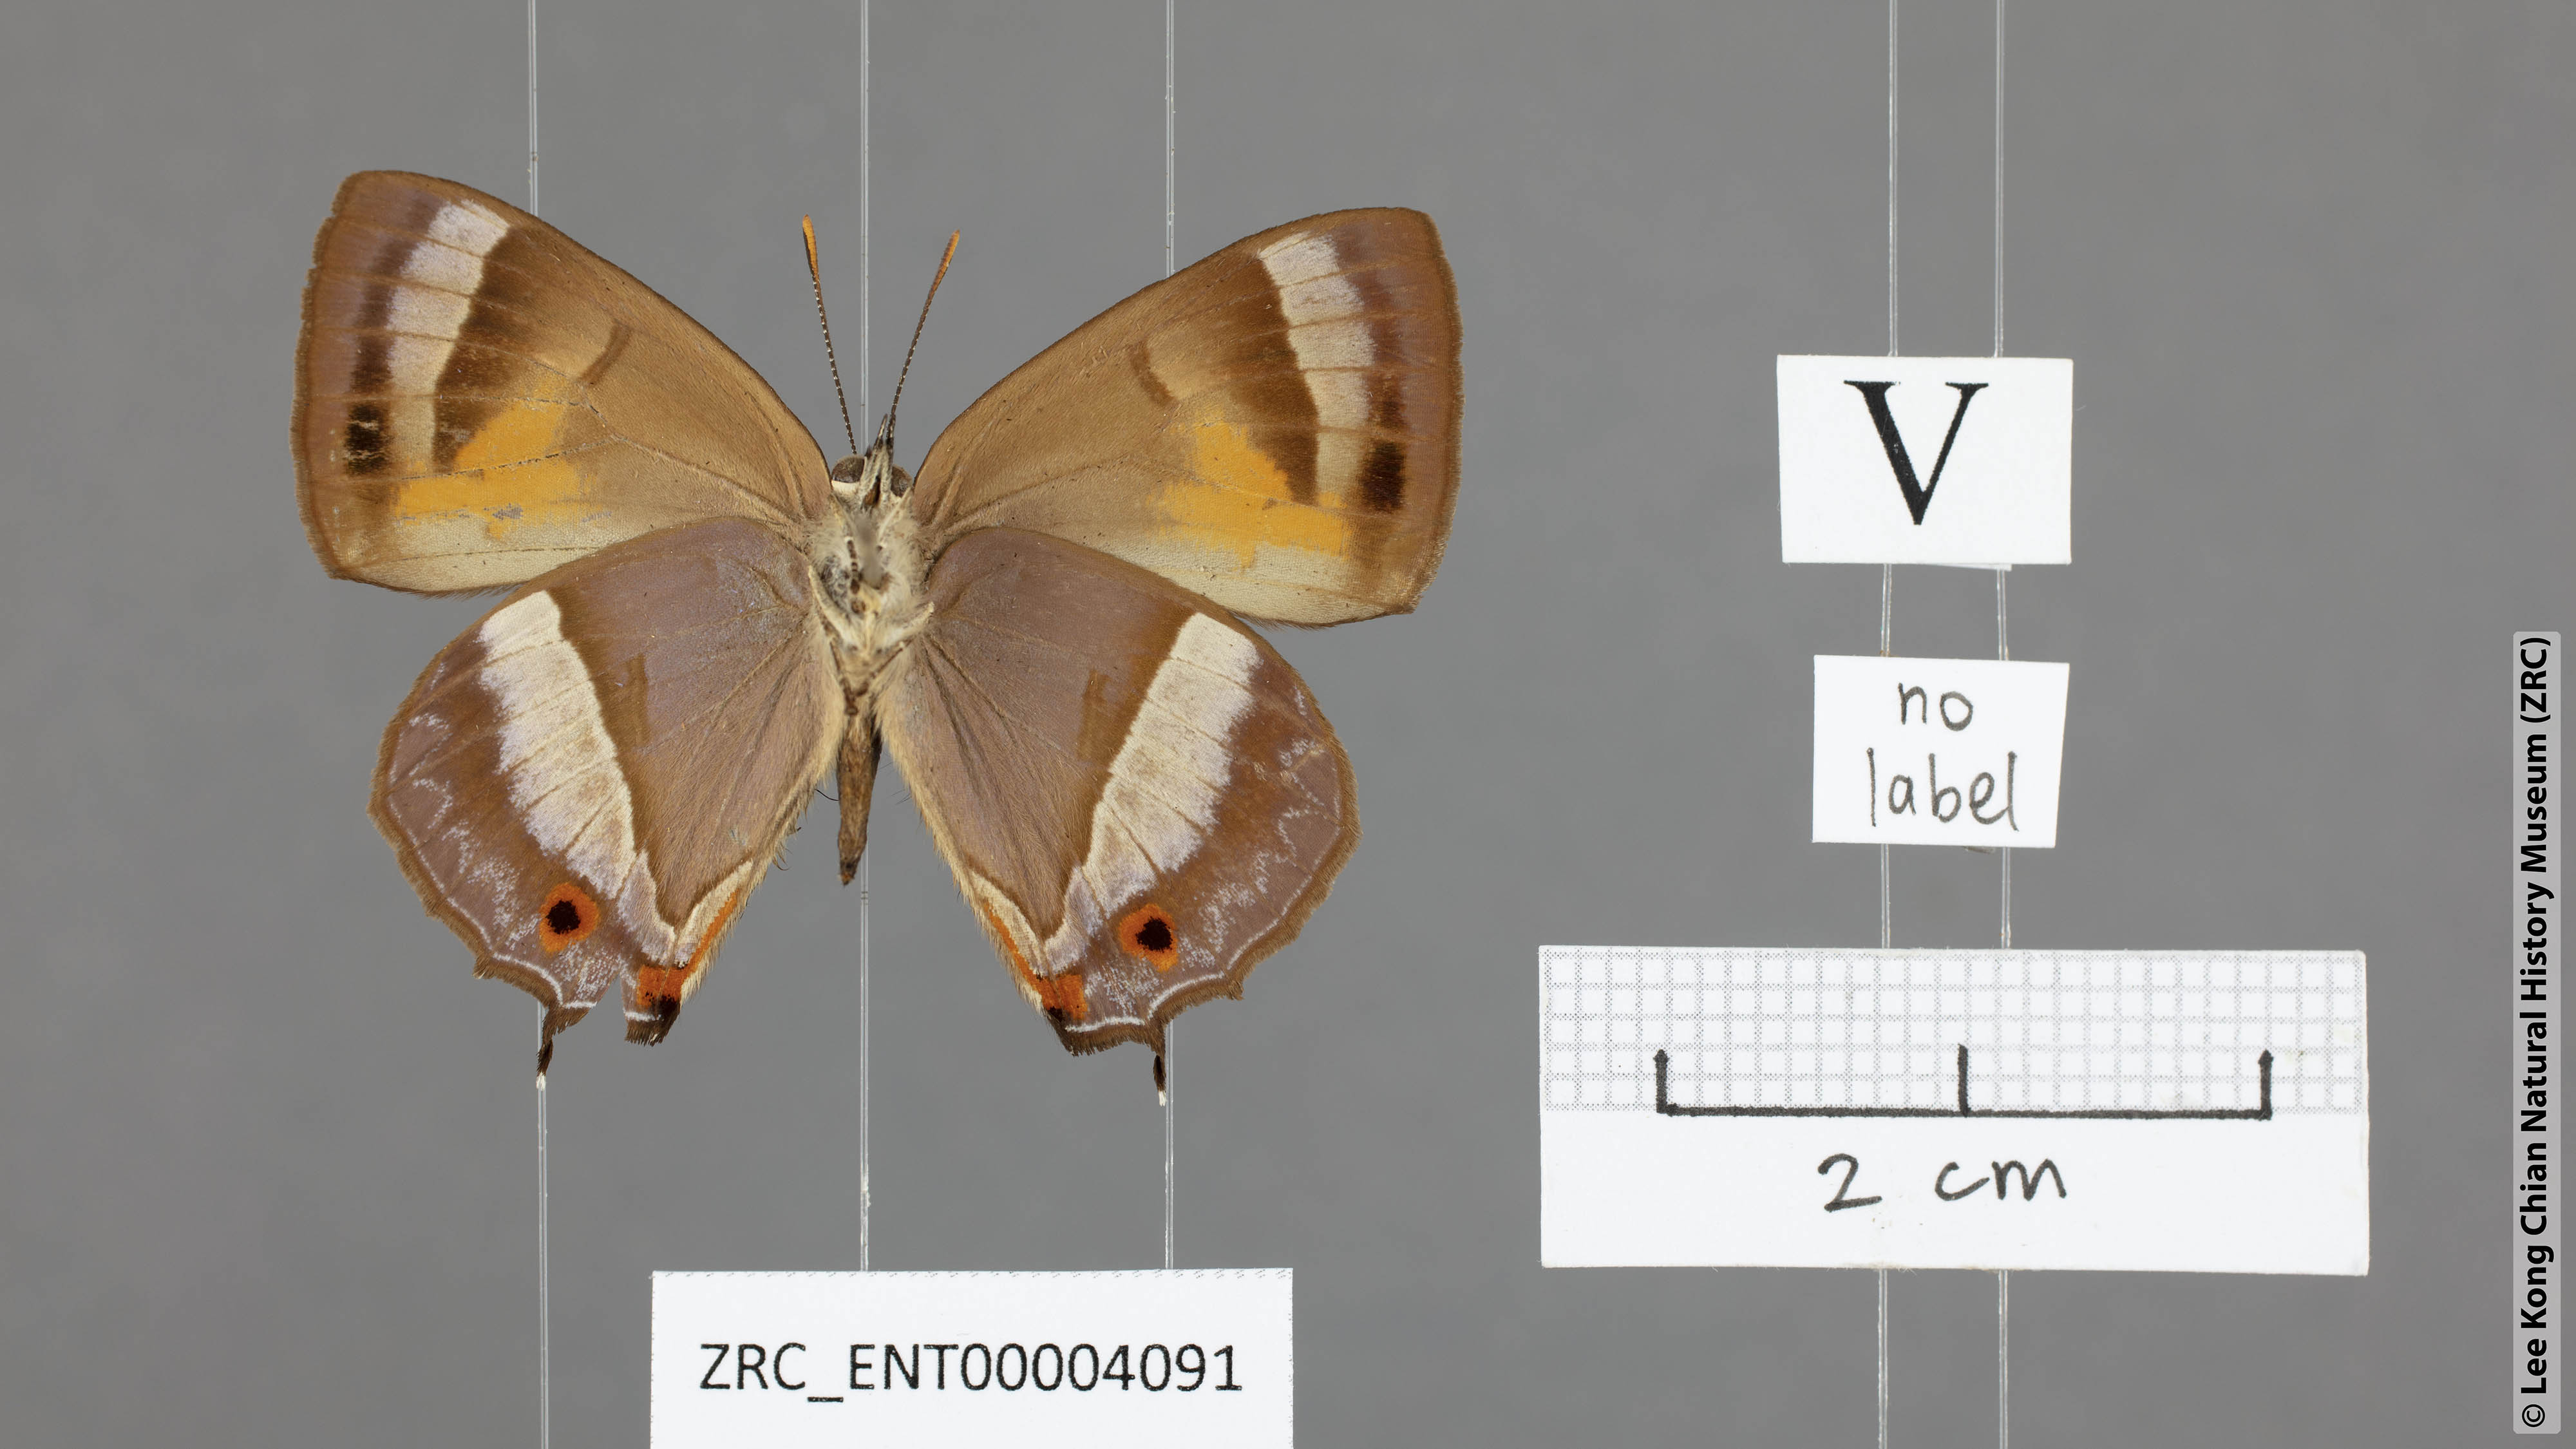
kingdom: Animalia
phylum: Arthropoda
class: Insecta
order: Lepidoptera
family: Lycaenidae
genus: Austrozephyrus
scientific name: Austrozephyrus absolon
